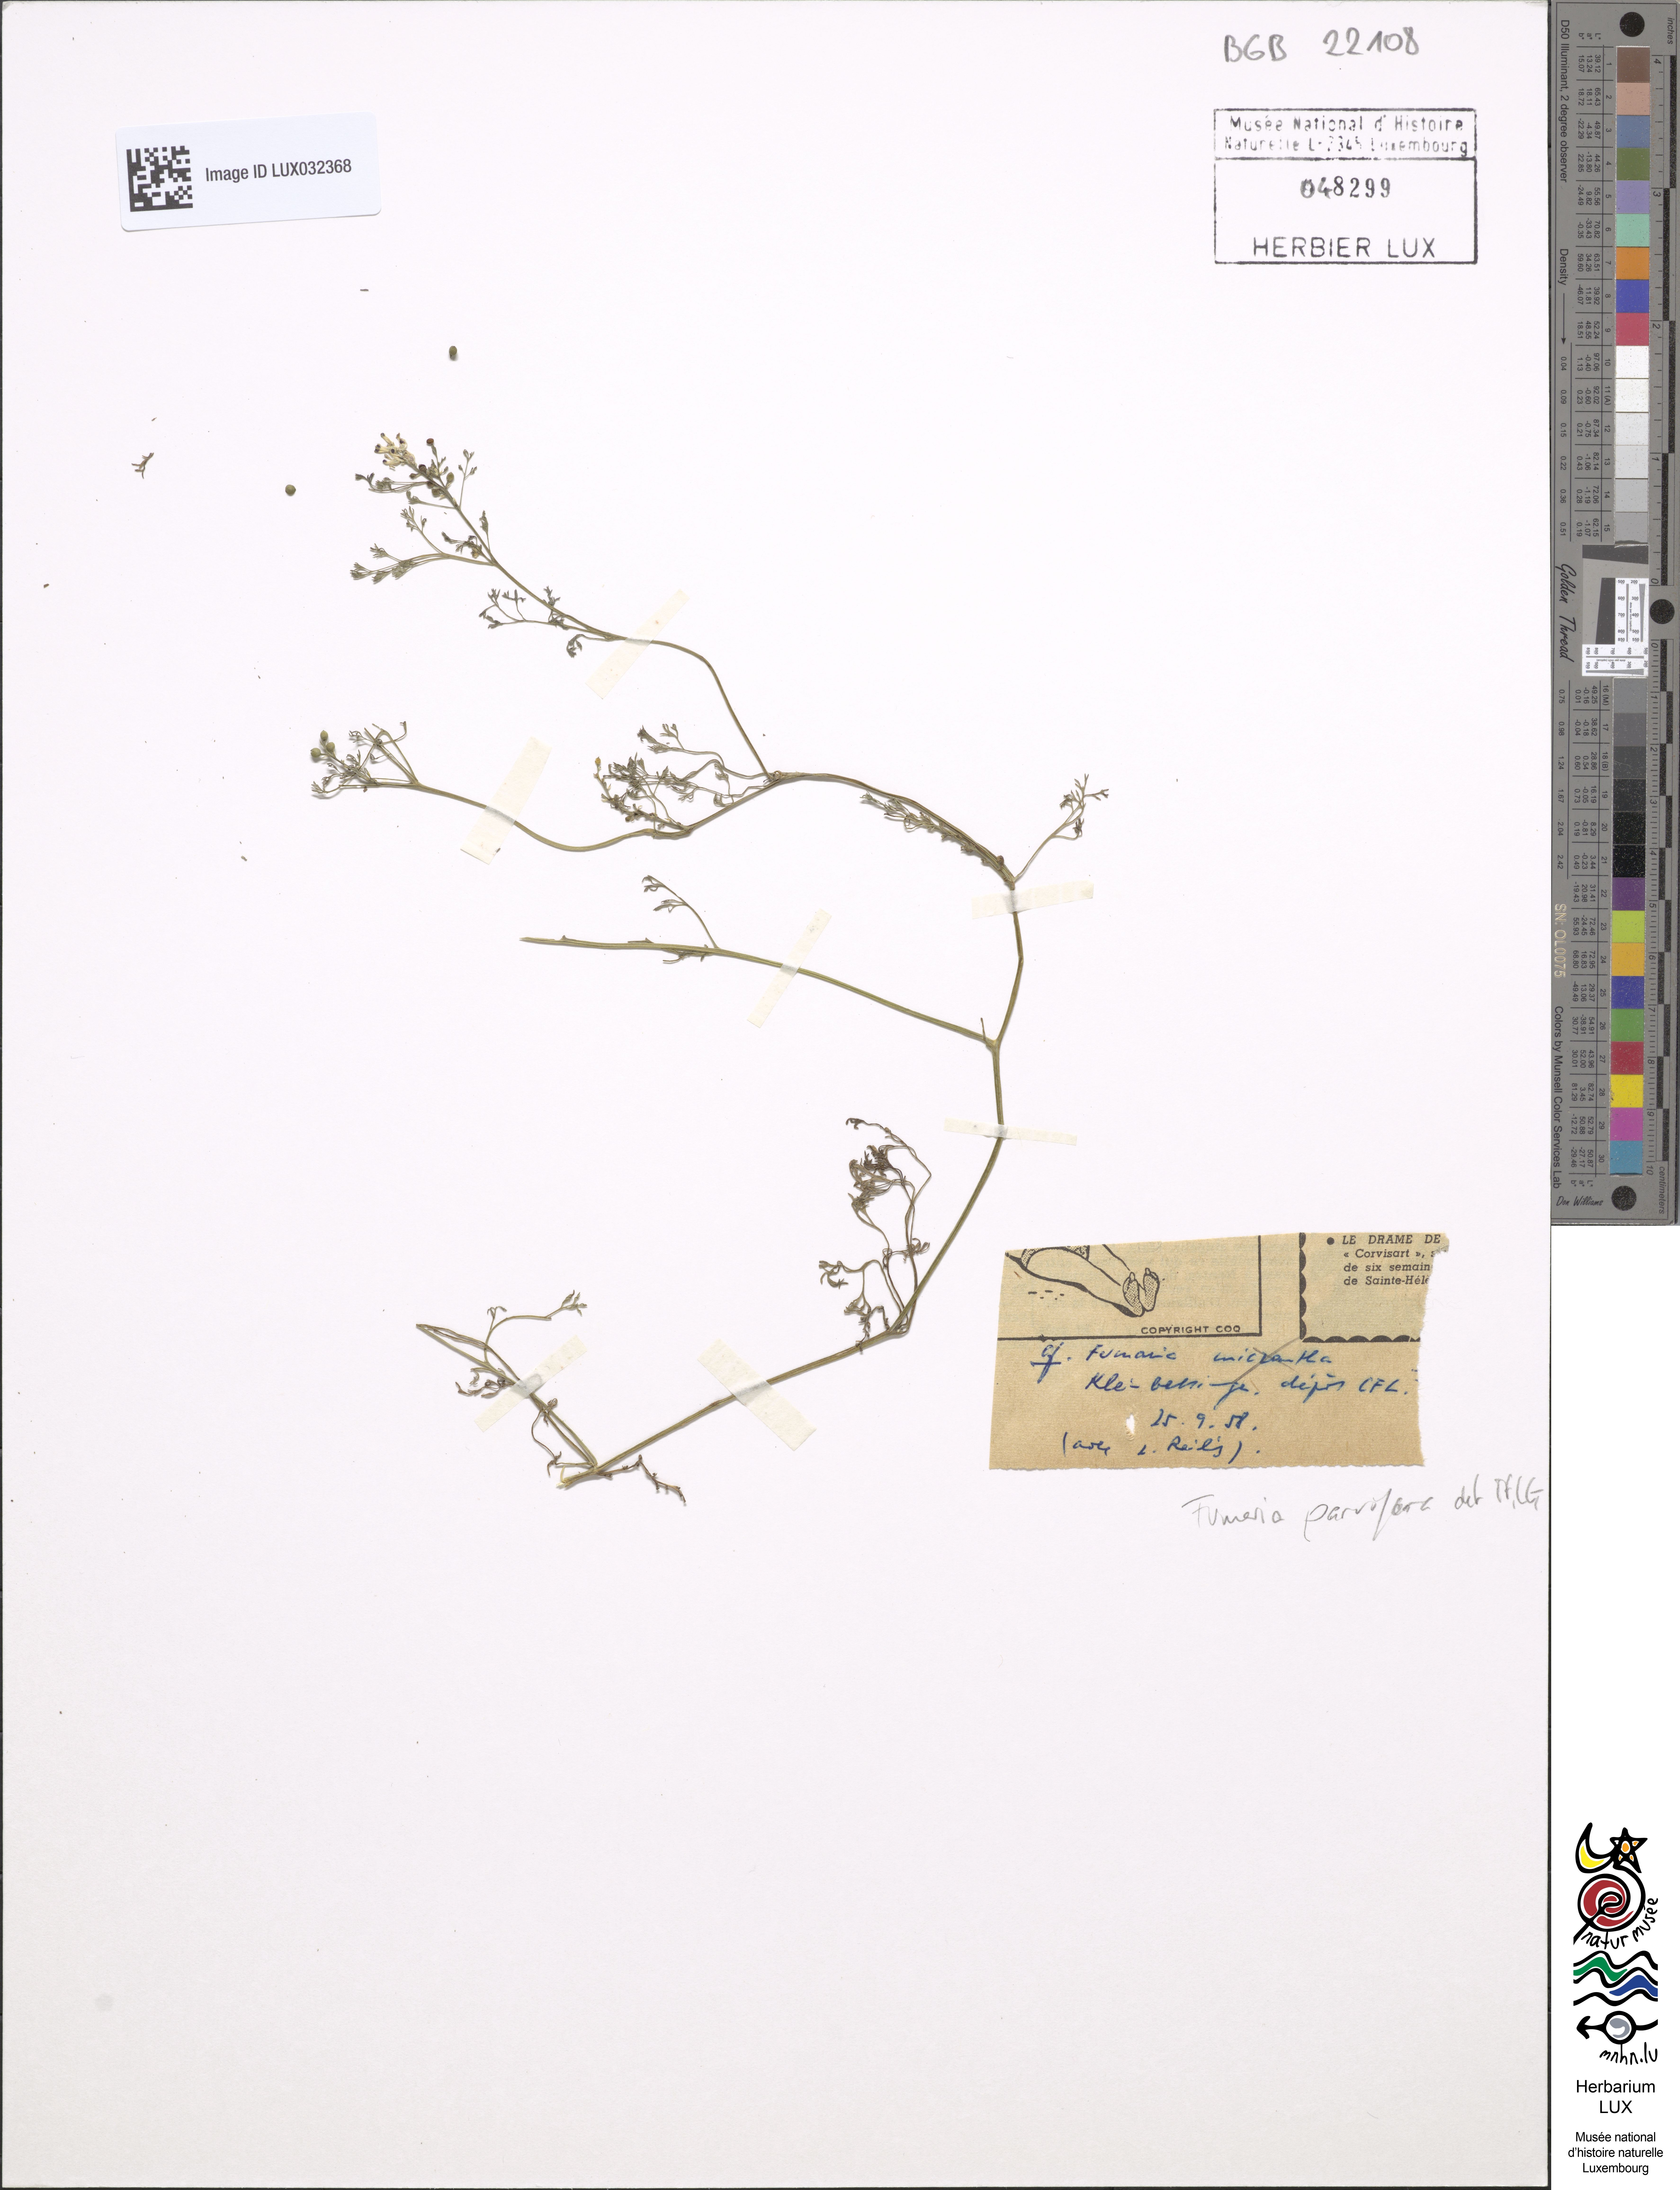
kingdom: Plantae
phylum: Tracheophyta
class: Magnoliopsida
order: Ranunculales
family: Papaveraceae
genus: Fumaria
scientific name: Fumaria parviflora
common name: Fine-leaved fumitory
